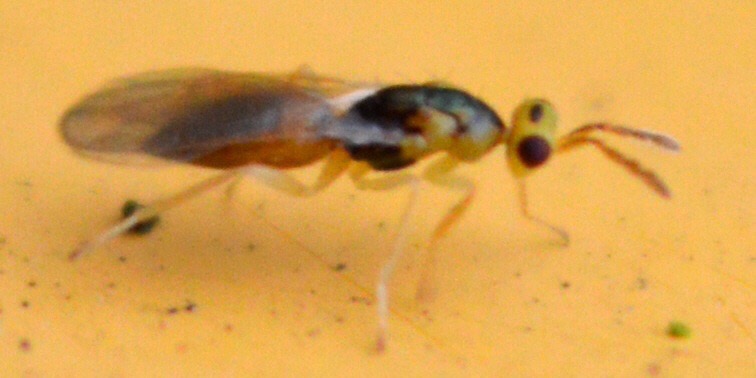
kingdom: Animalia
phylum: Arthropoda
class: Insecta
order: Hymenoptera
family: Eulophidae
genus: Cirrospilus
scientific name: Cirrospilus diallus
